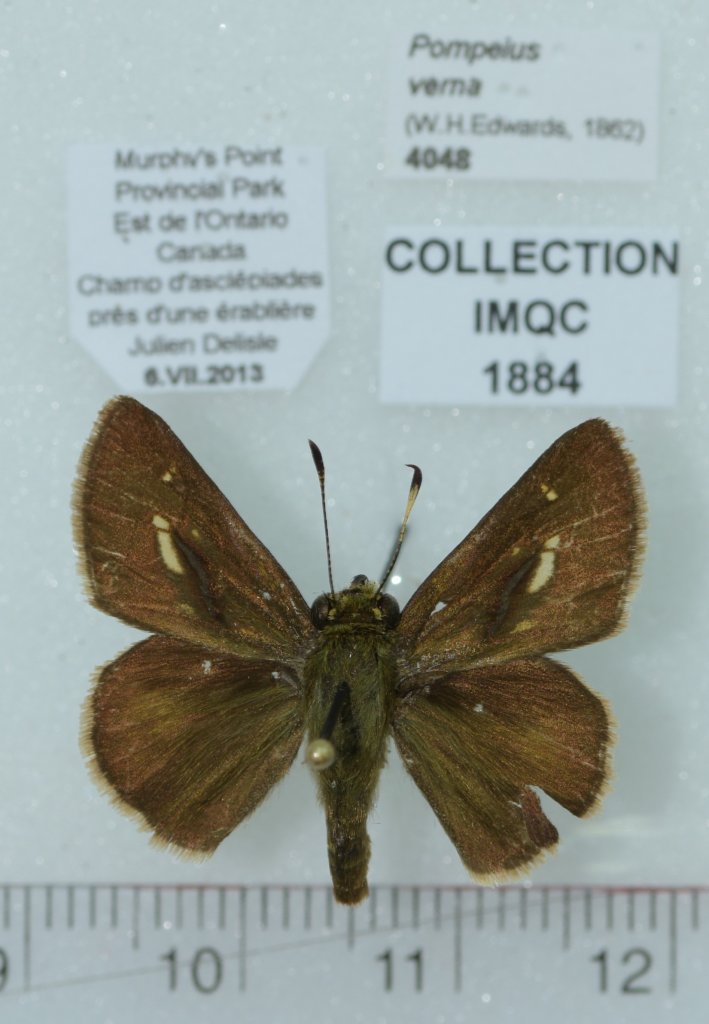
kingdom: Animalia
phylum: Arthropoda
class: Insecta
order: Lepidoptera
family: Hesperiidae
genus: Vernia
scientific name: Vernia verna
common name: Little Glassywing
